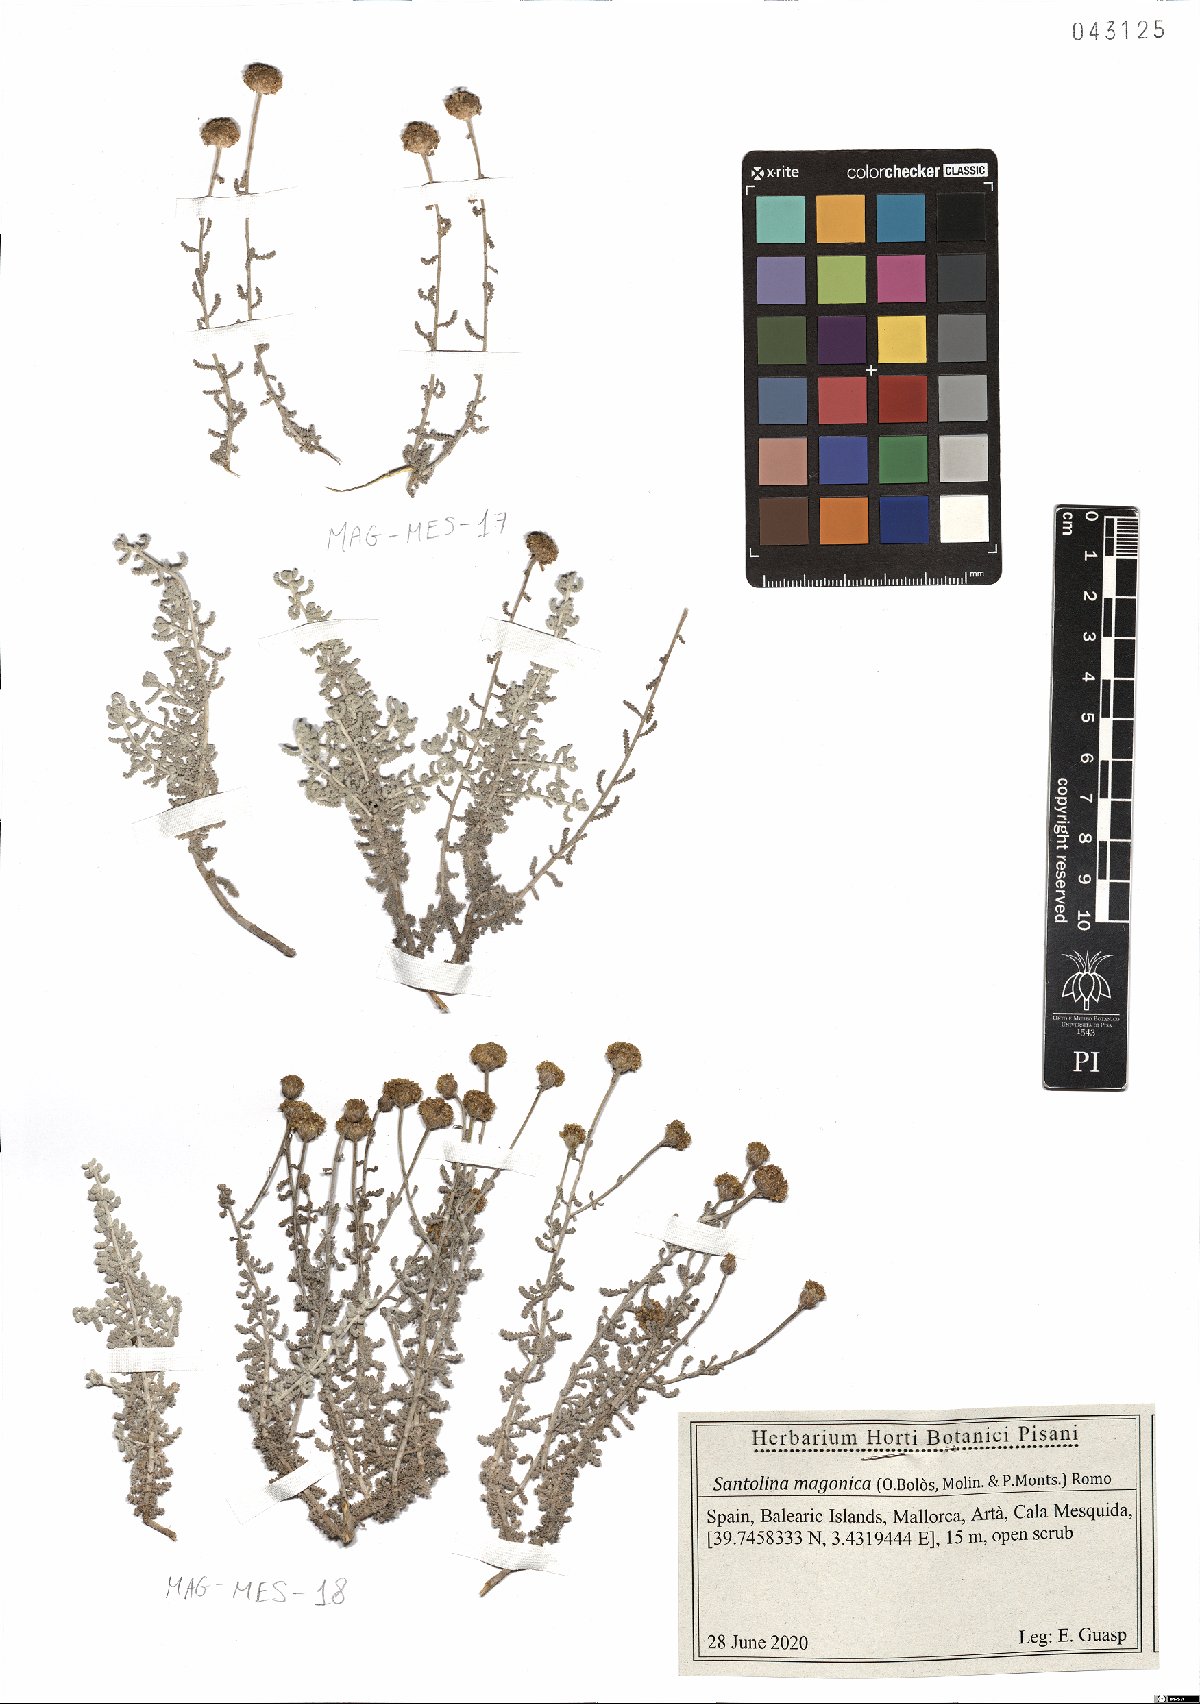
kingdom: Plantae
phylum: Tracheophyta
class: Magnoliopsida
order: Asterales
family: Asteraceae
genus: Santolina
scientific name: Santolina magonica
